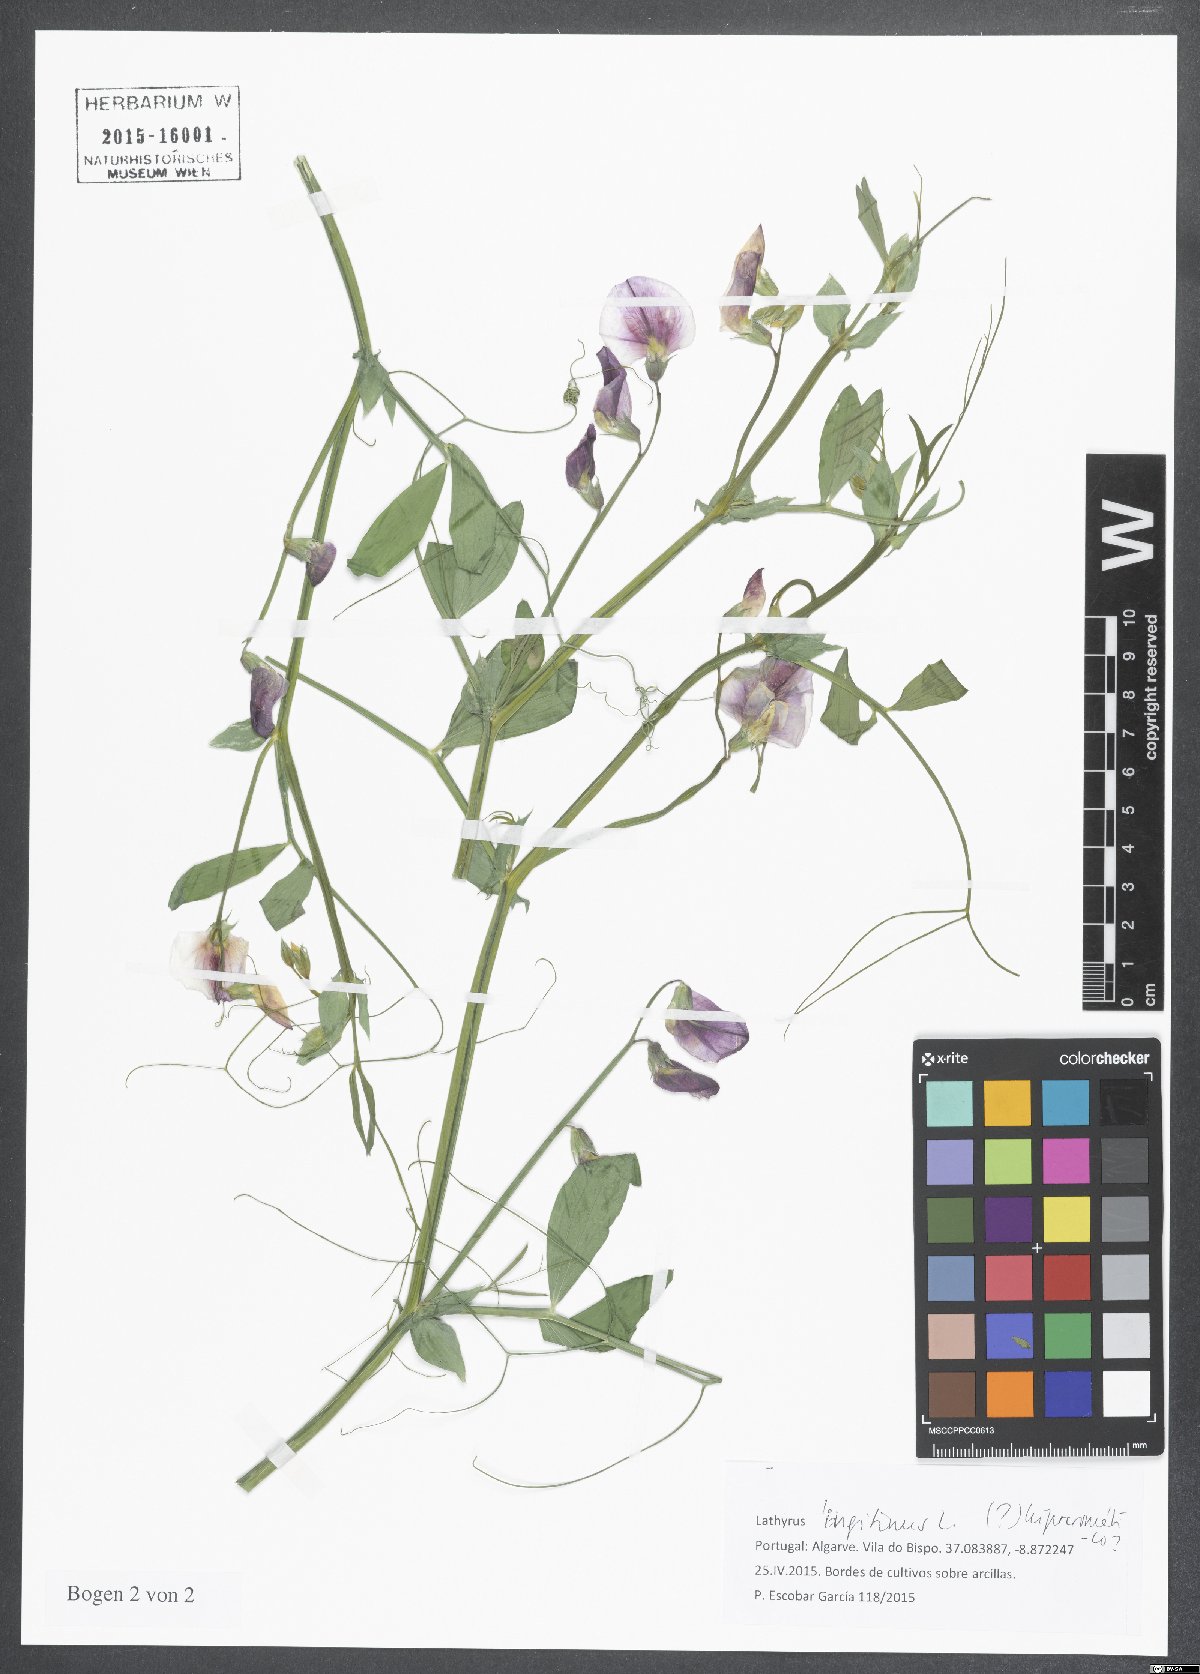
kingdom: Plantae
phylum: Tracheophyta
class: Magnoliopsida
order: Fabales
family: Fabaceae
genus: Lathyrus
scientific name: Lathyrus tingitanus
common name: Tangier pea
